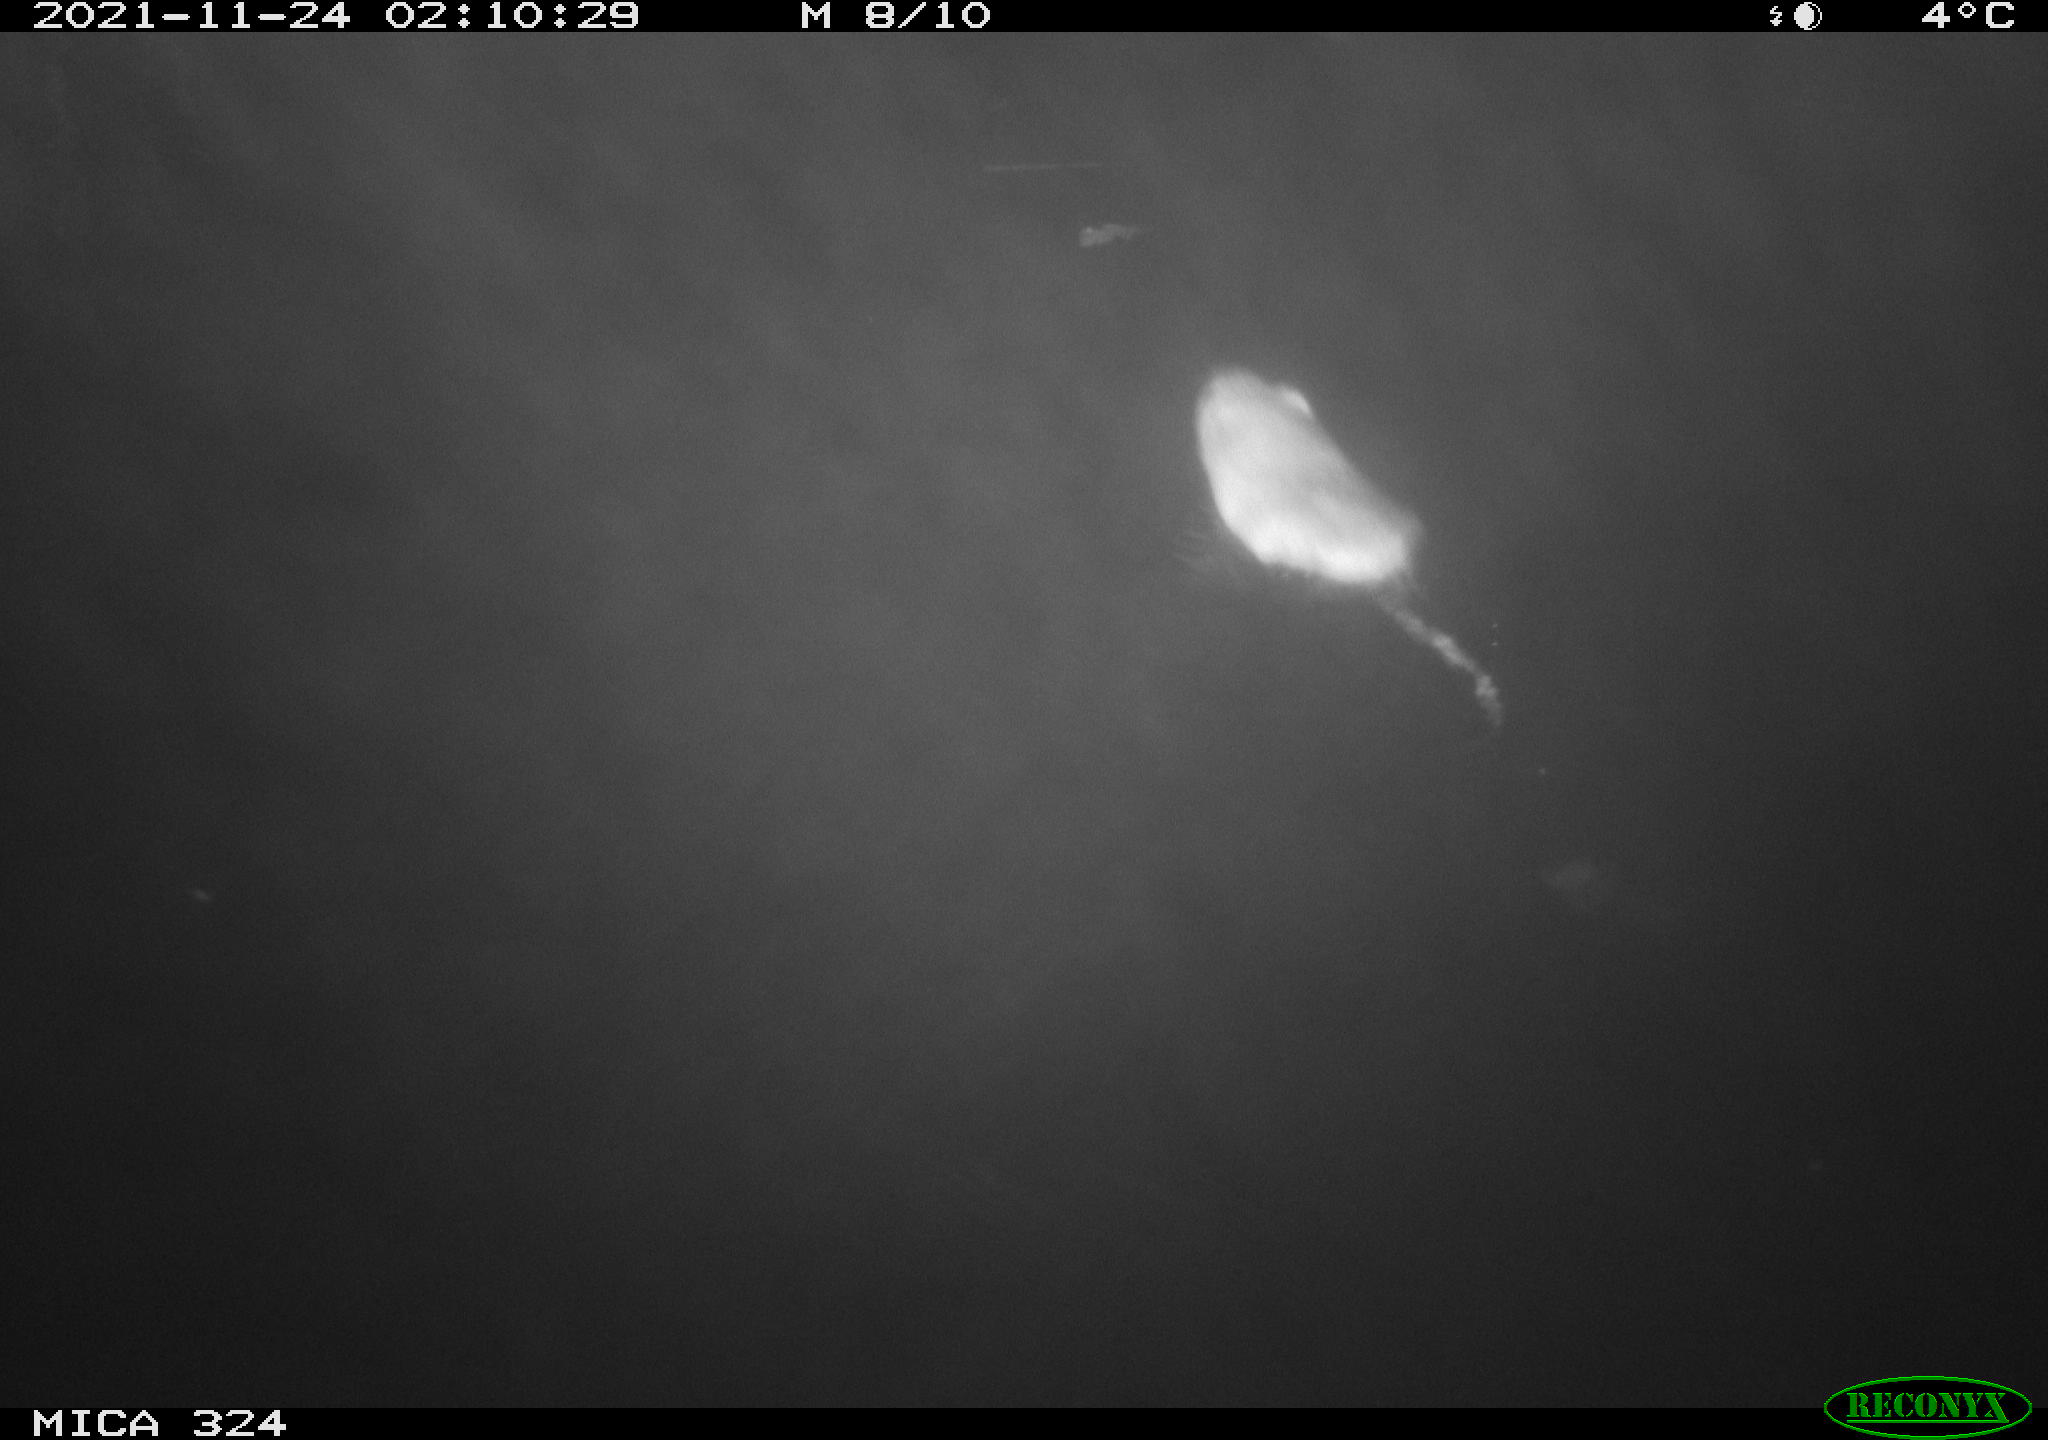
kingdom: Animalia
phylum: Chordata
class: Mammalia
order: Rodentia
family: Myocastoridae
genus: Myocastor
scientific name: Myocastor coypus
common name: Coypu
